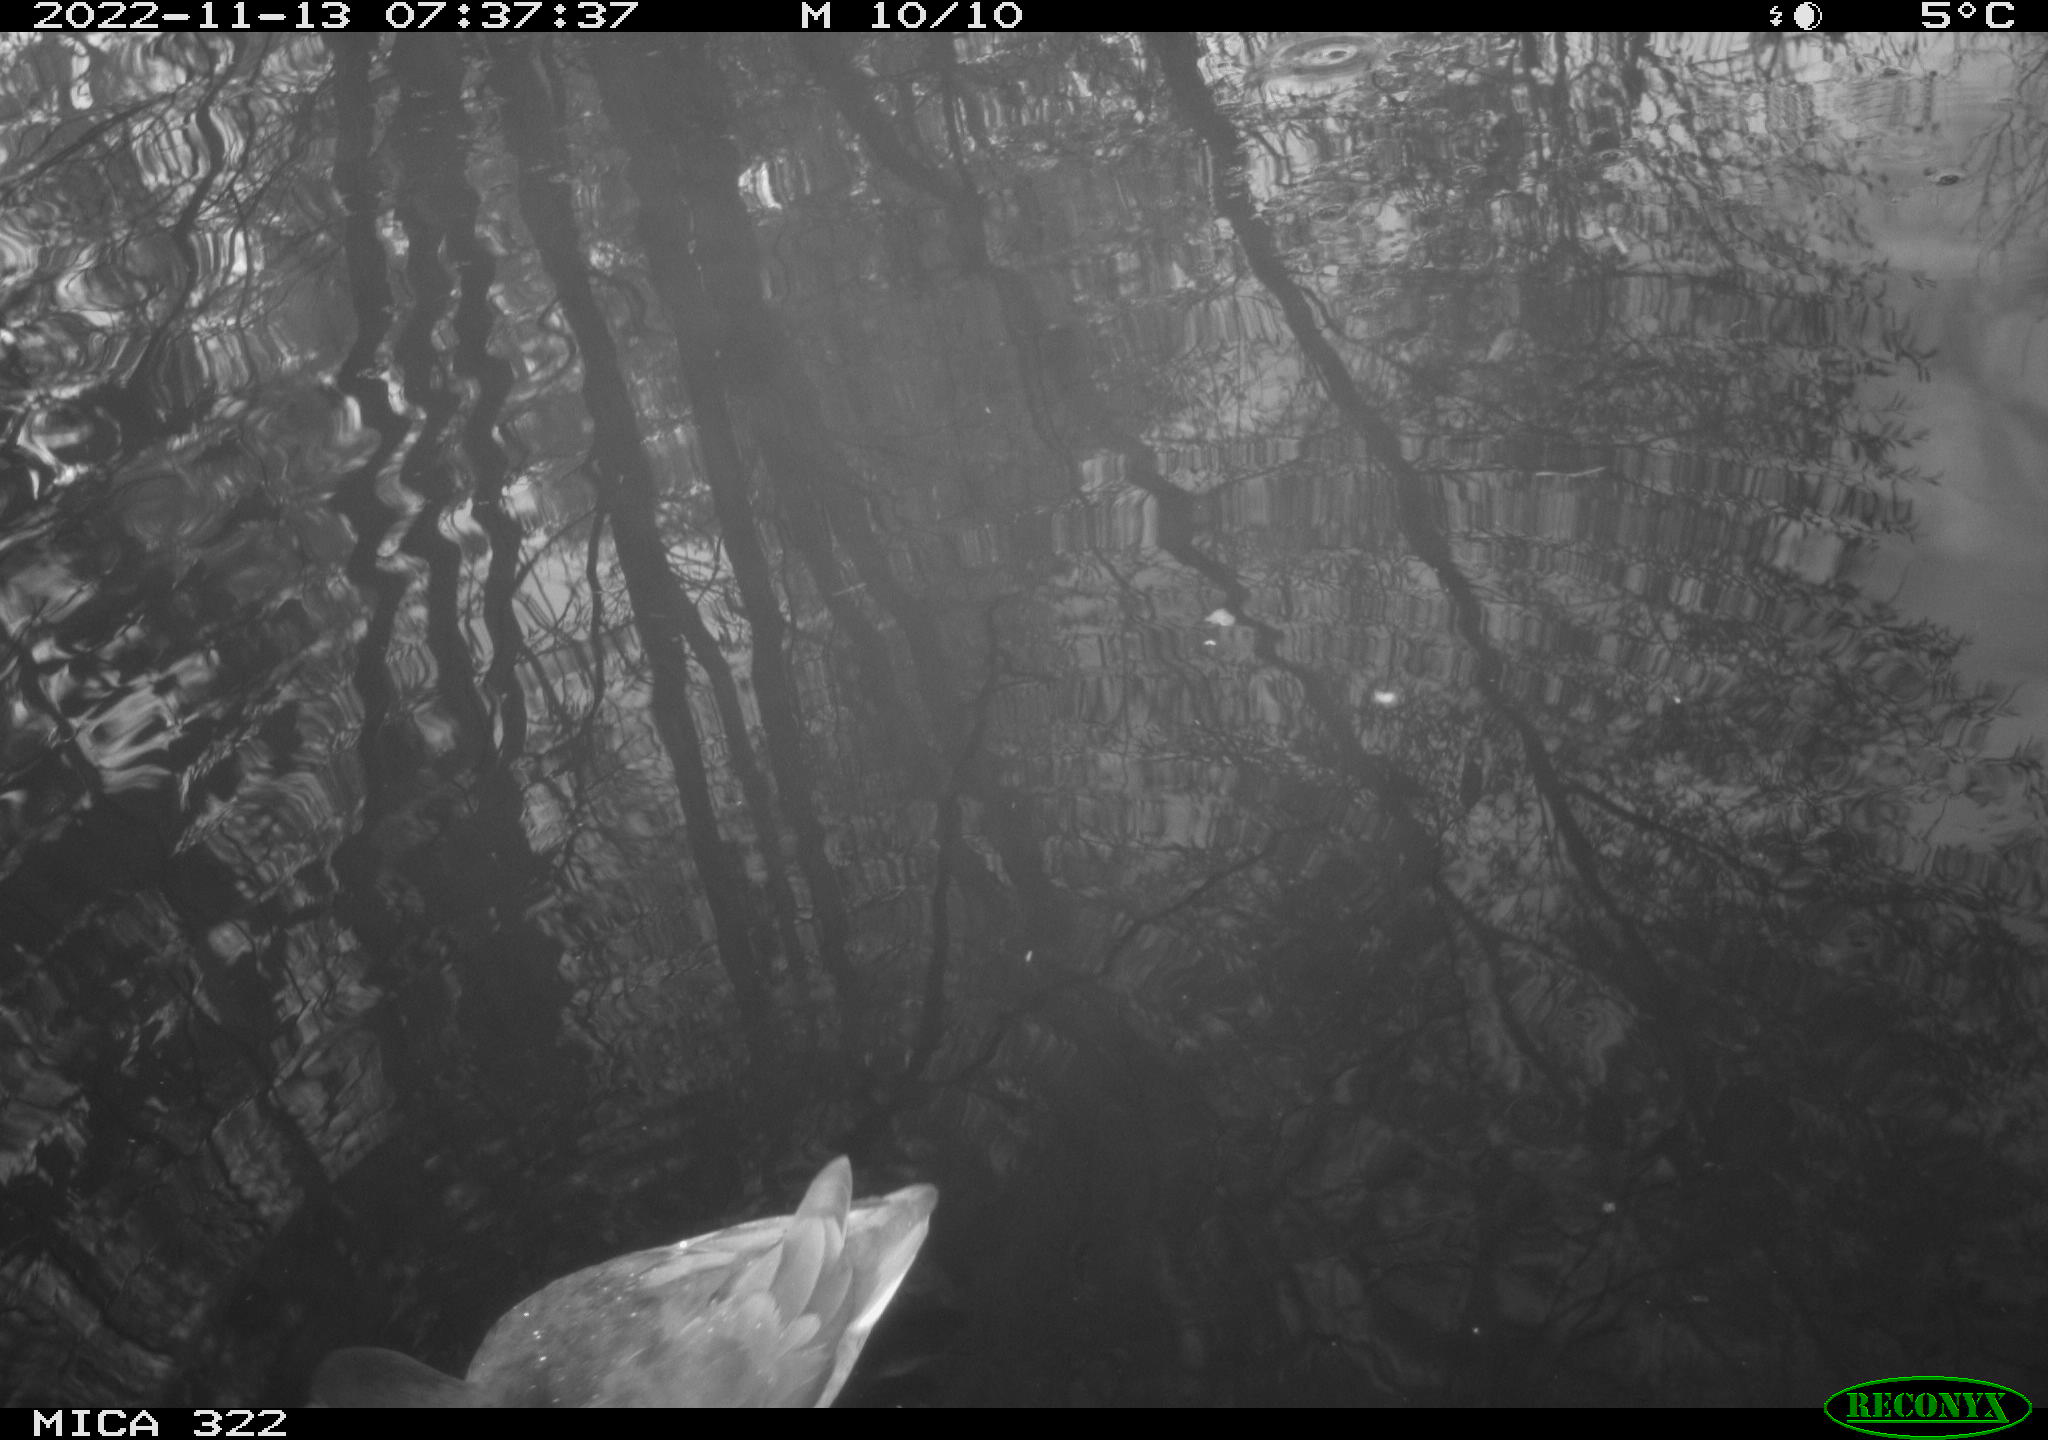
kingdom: Animalia
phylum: Chordata
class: Aves
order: Gruiformes
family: Rallidae
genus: Fulica
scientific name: Fulica atra
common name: Eurasian coot
